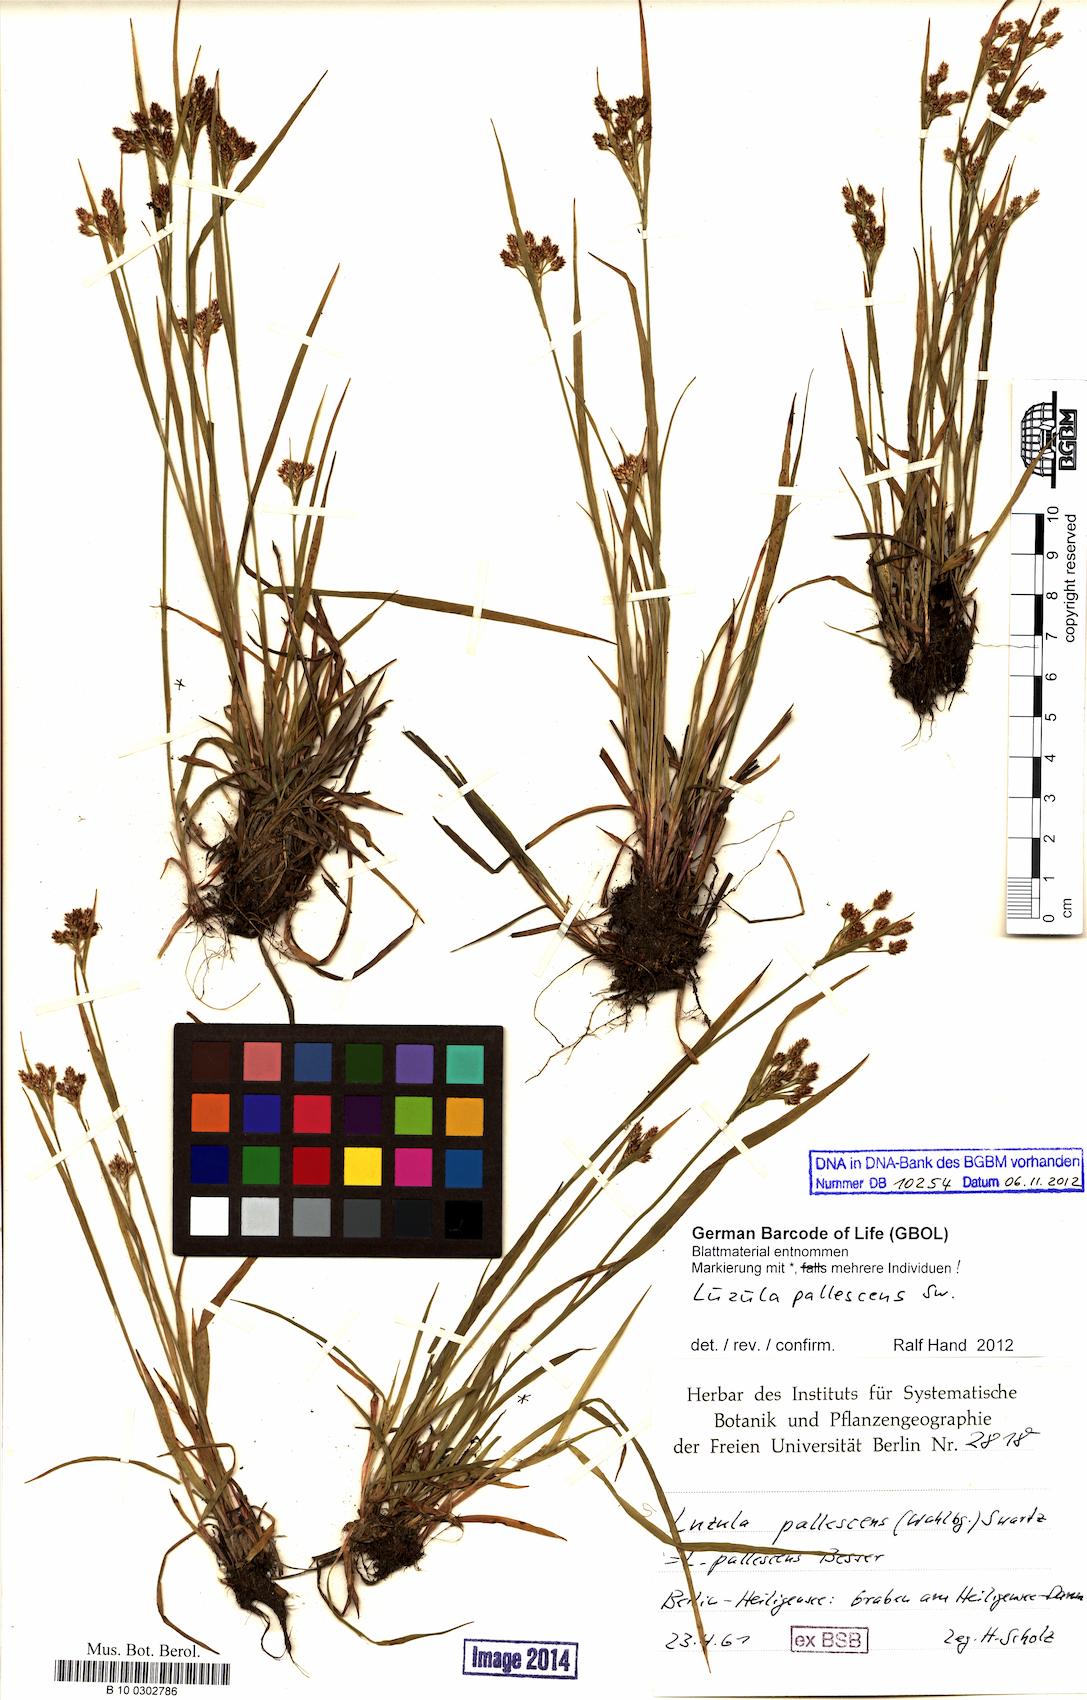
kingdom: Plantae
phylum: Tracheophyta
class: Liliopsida
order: Poales
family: Juncaceae
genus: Luzula
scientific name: Luzula pallescens
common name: Fen wood-rush
